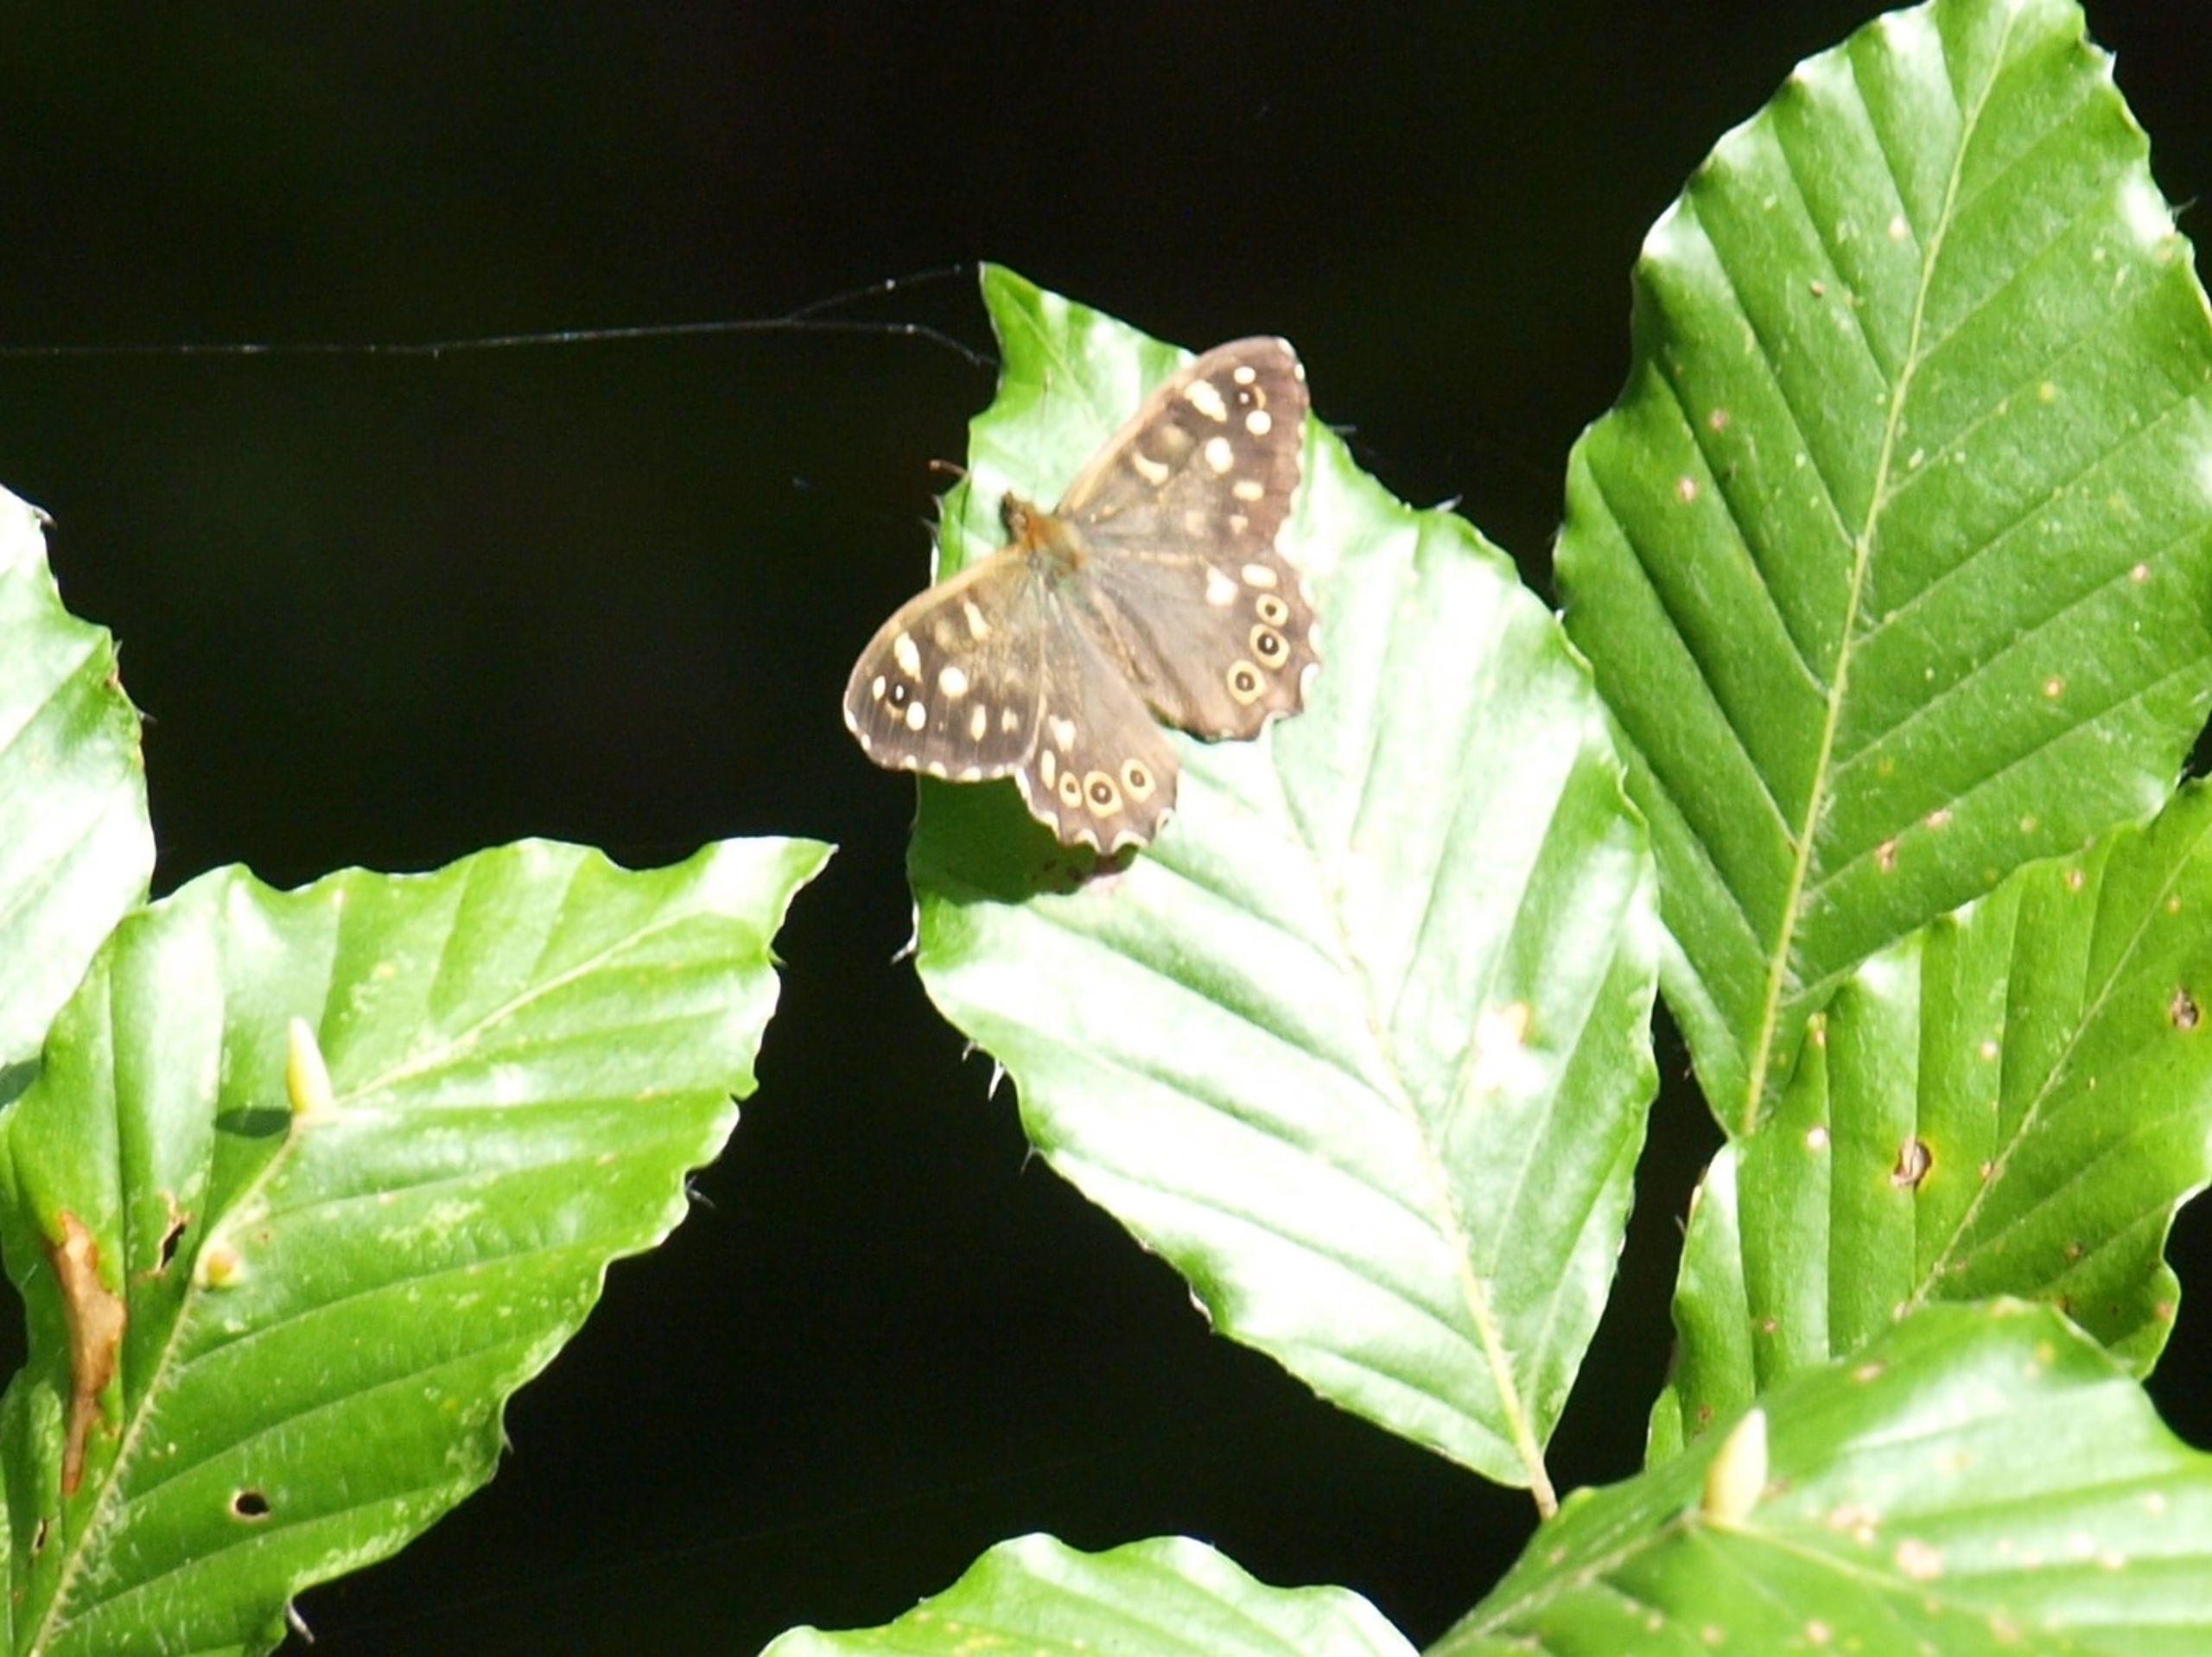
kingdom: Animalia
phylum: Arthropoda
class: Insecta
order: Lepidoptera
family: Nymphalidae
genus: Pararge
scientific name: Pararge aegeria
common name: Skovrandøje
